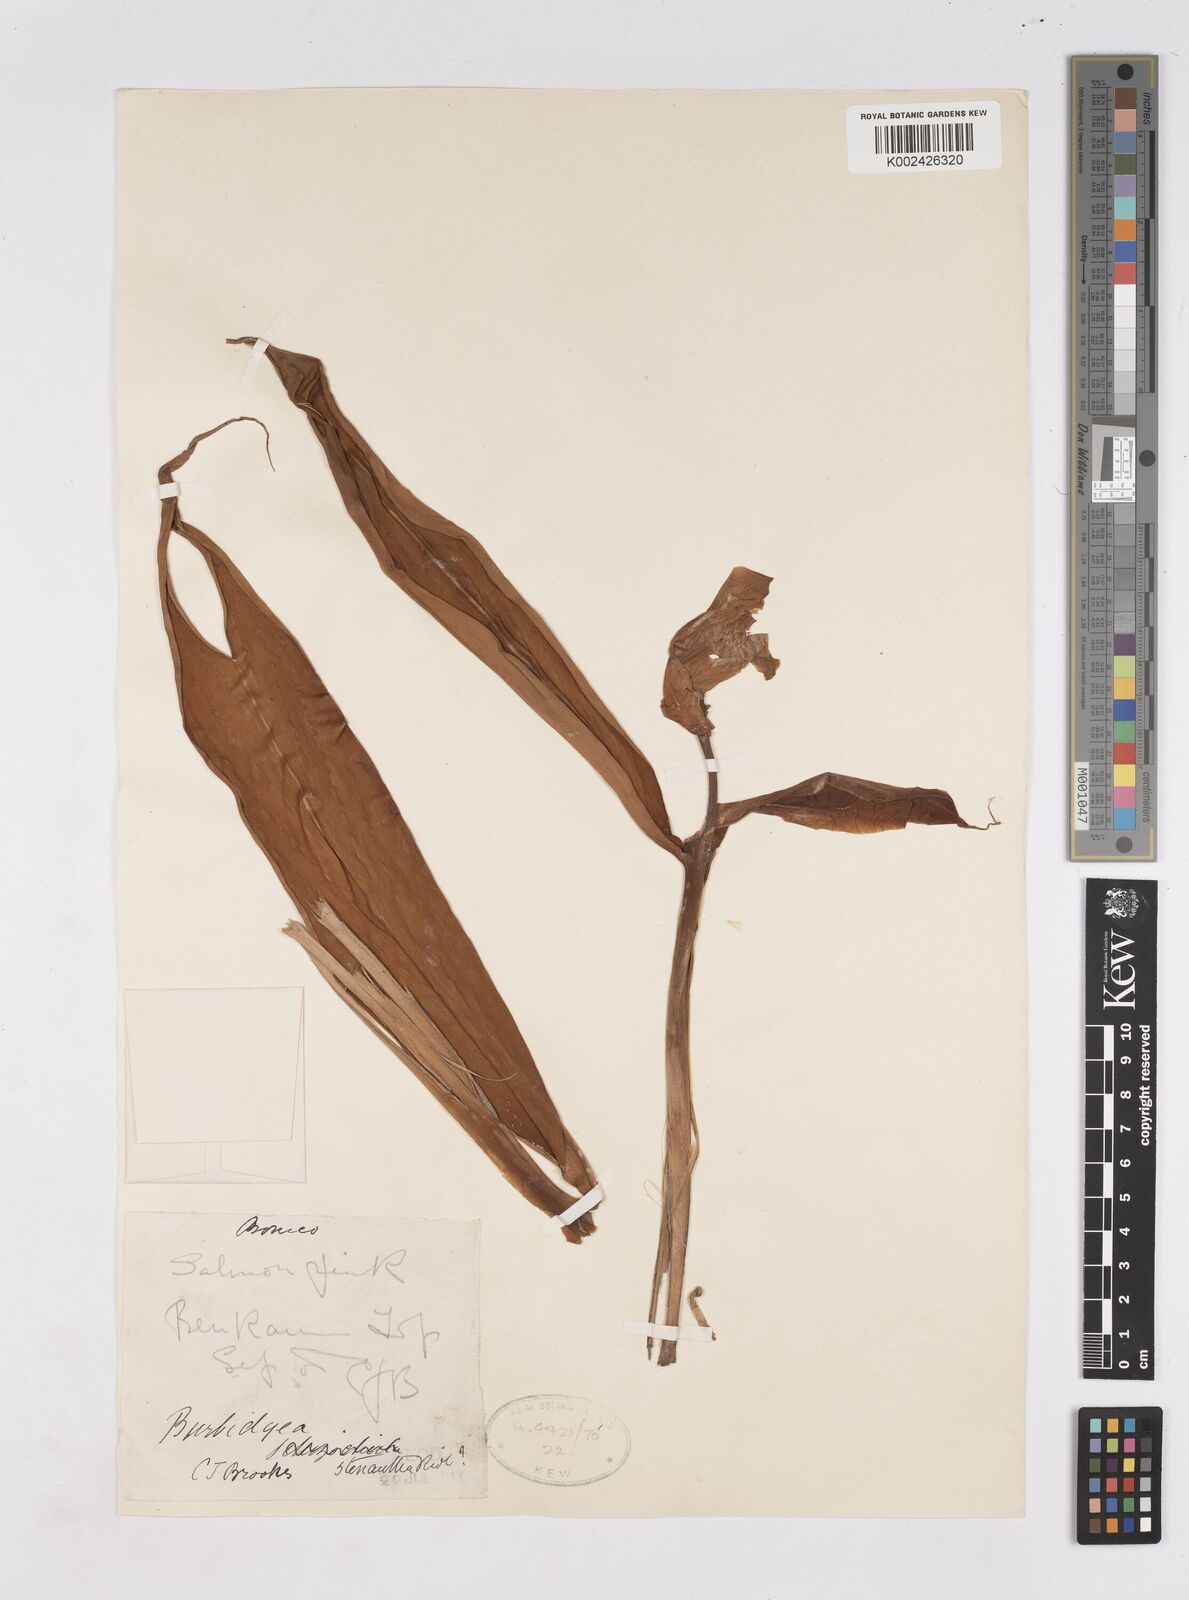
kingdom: Plantae
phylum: Tracheophyta
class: Liliopsida
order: Zingiberales
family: Zingiberaceae
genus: Burbidgea
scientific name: Burbidgea stenantha
